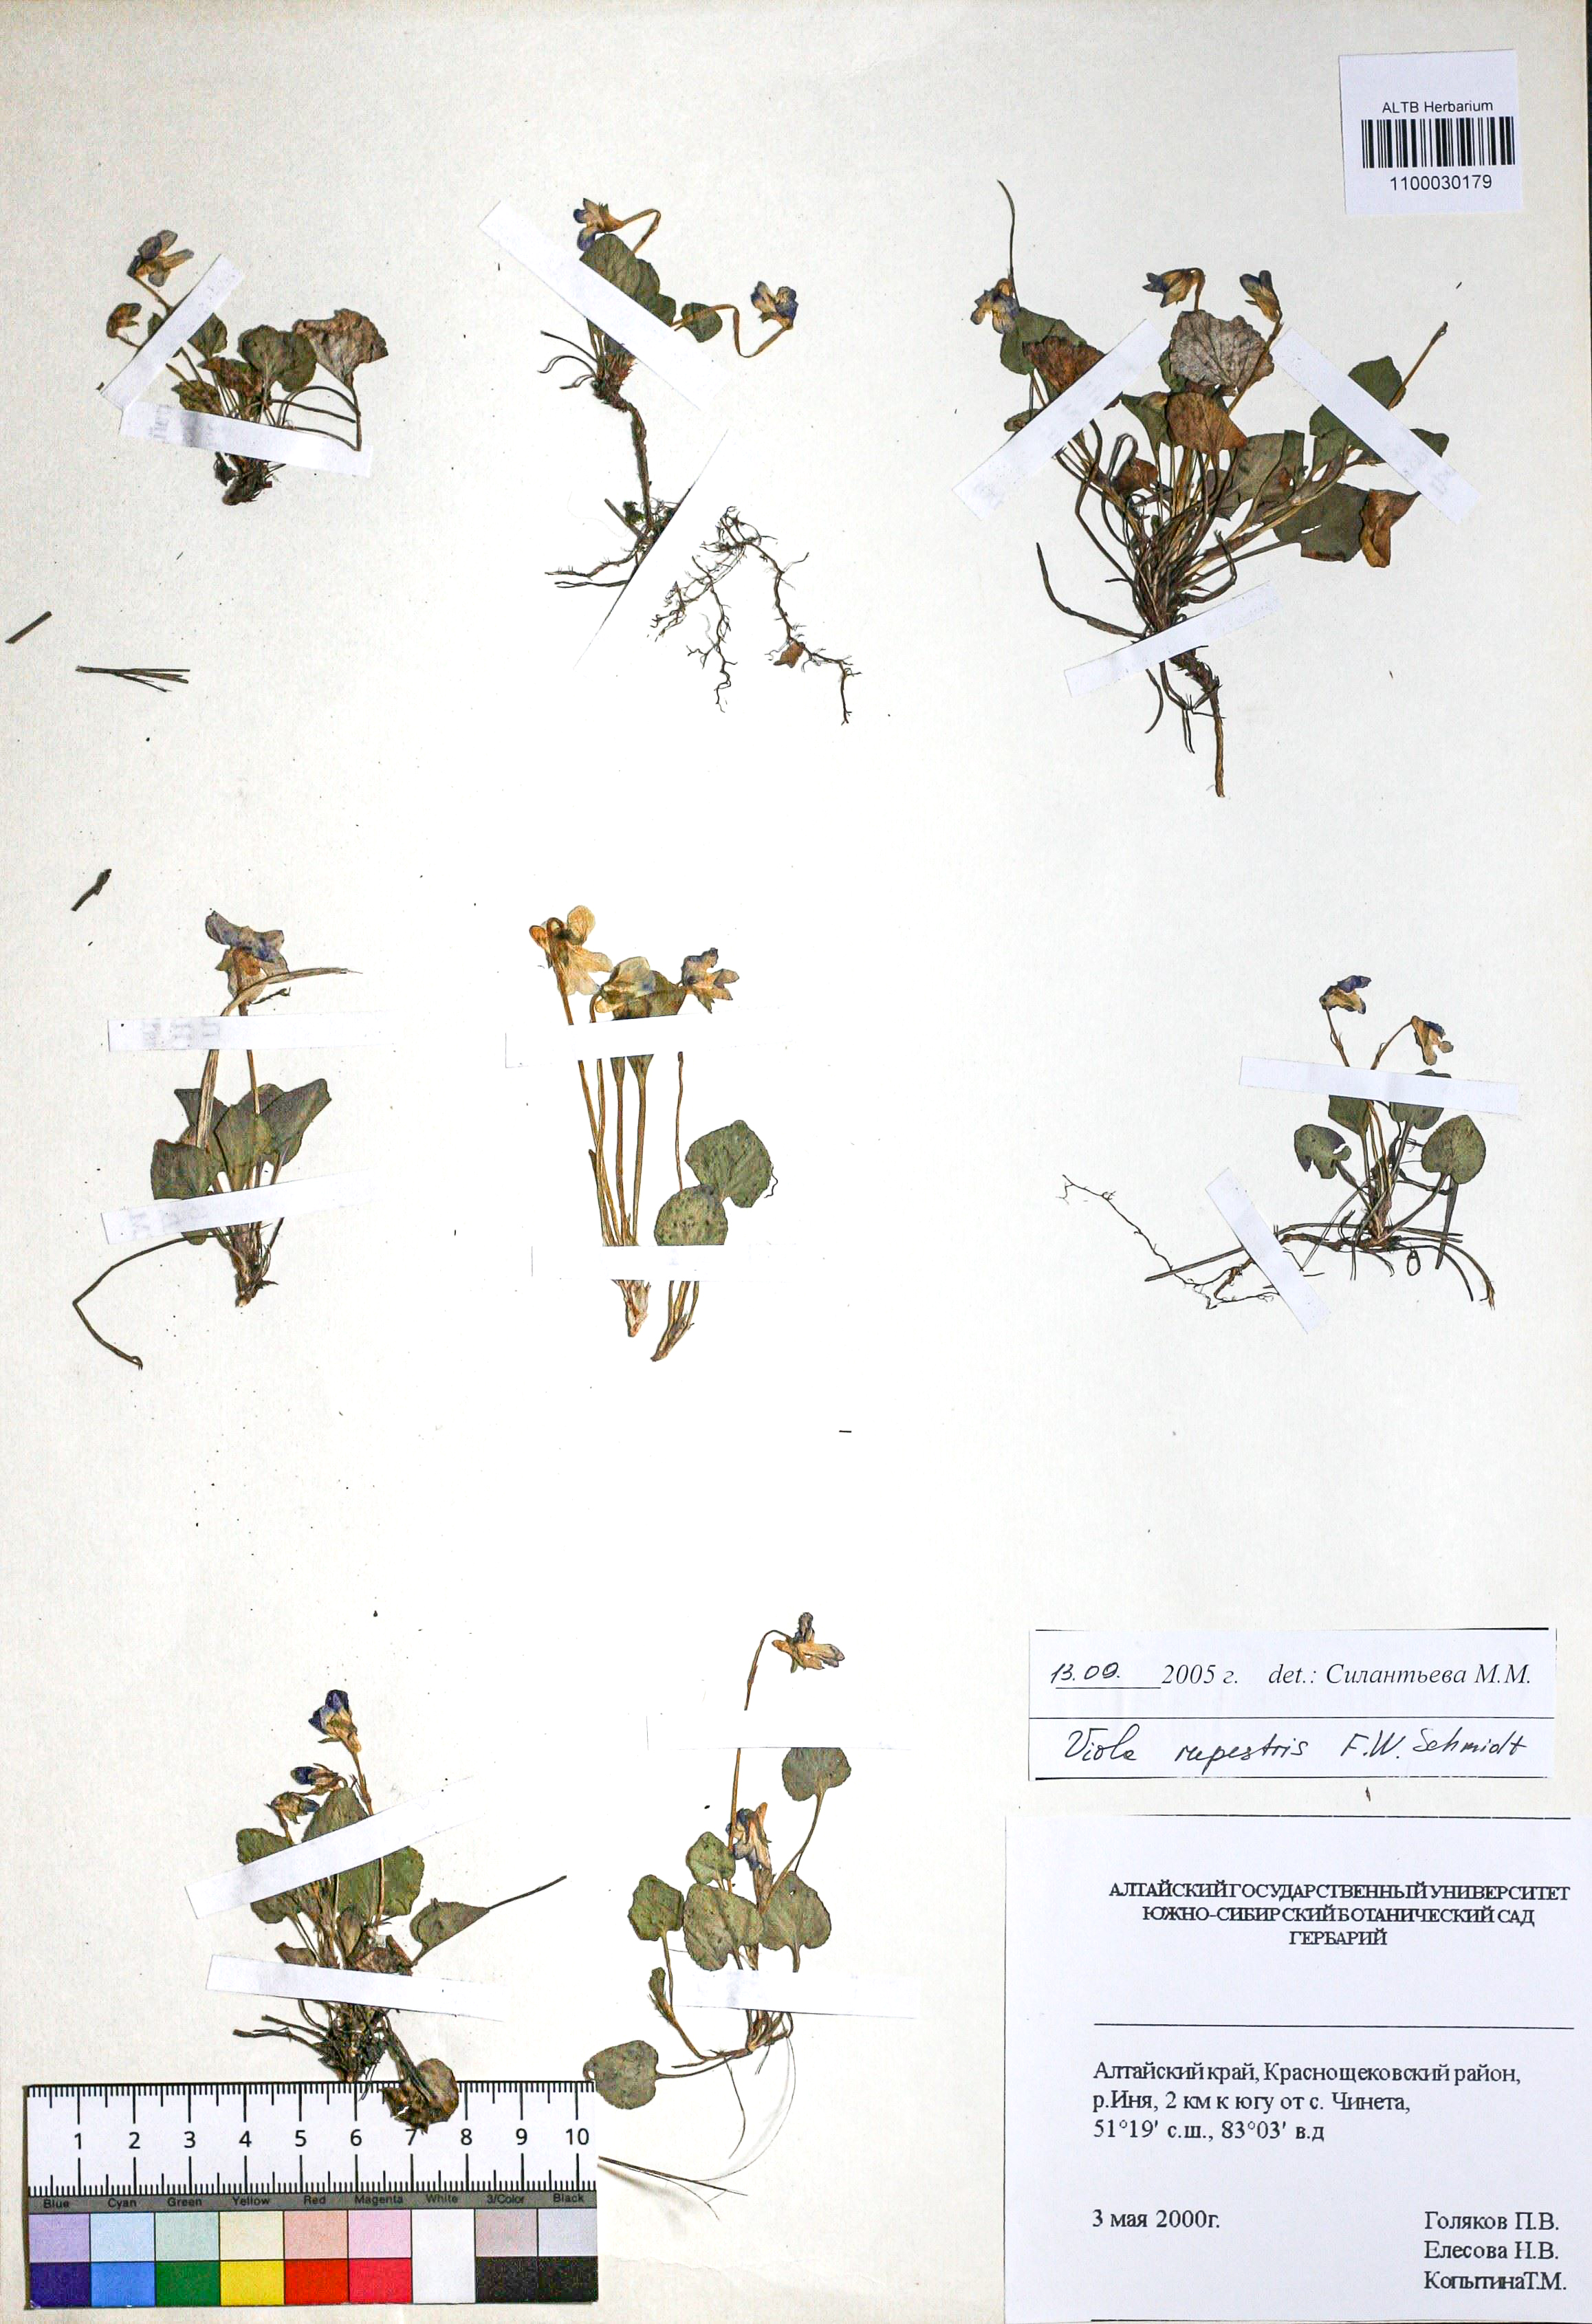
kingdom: Plantae
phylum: Tracheophyta
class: Magnoliopsida
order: Malpighiales
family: Violaceae
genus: Viola
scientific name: Viola rupestris
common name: Teesdale violet
